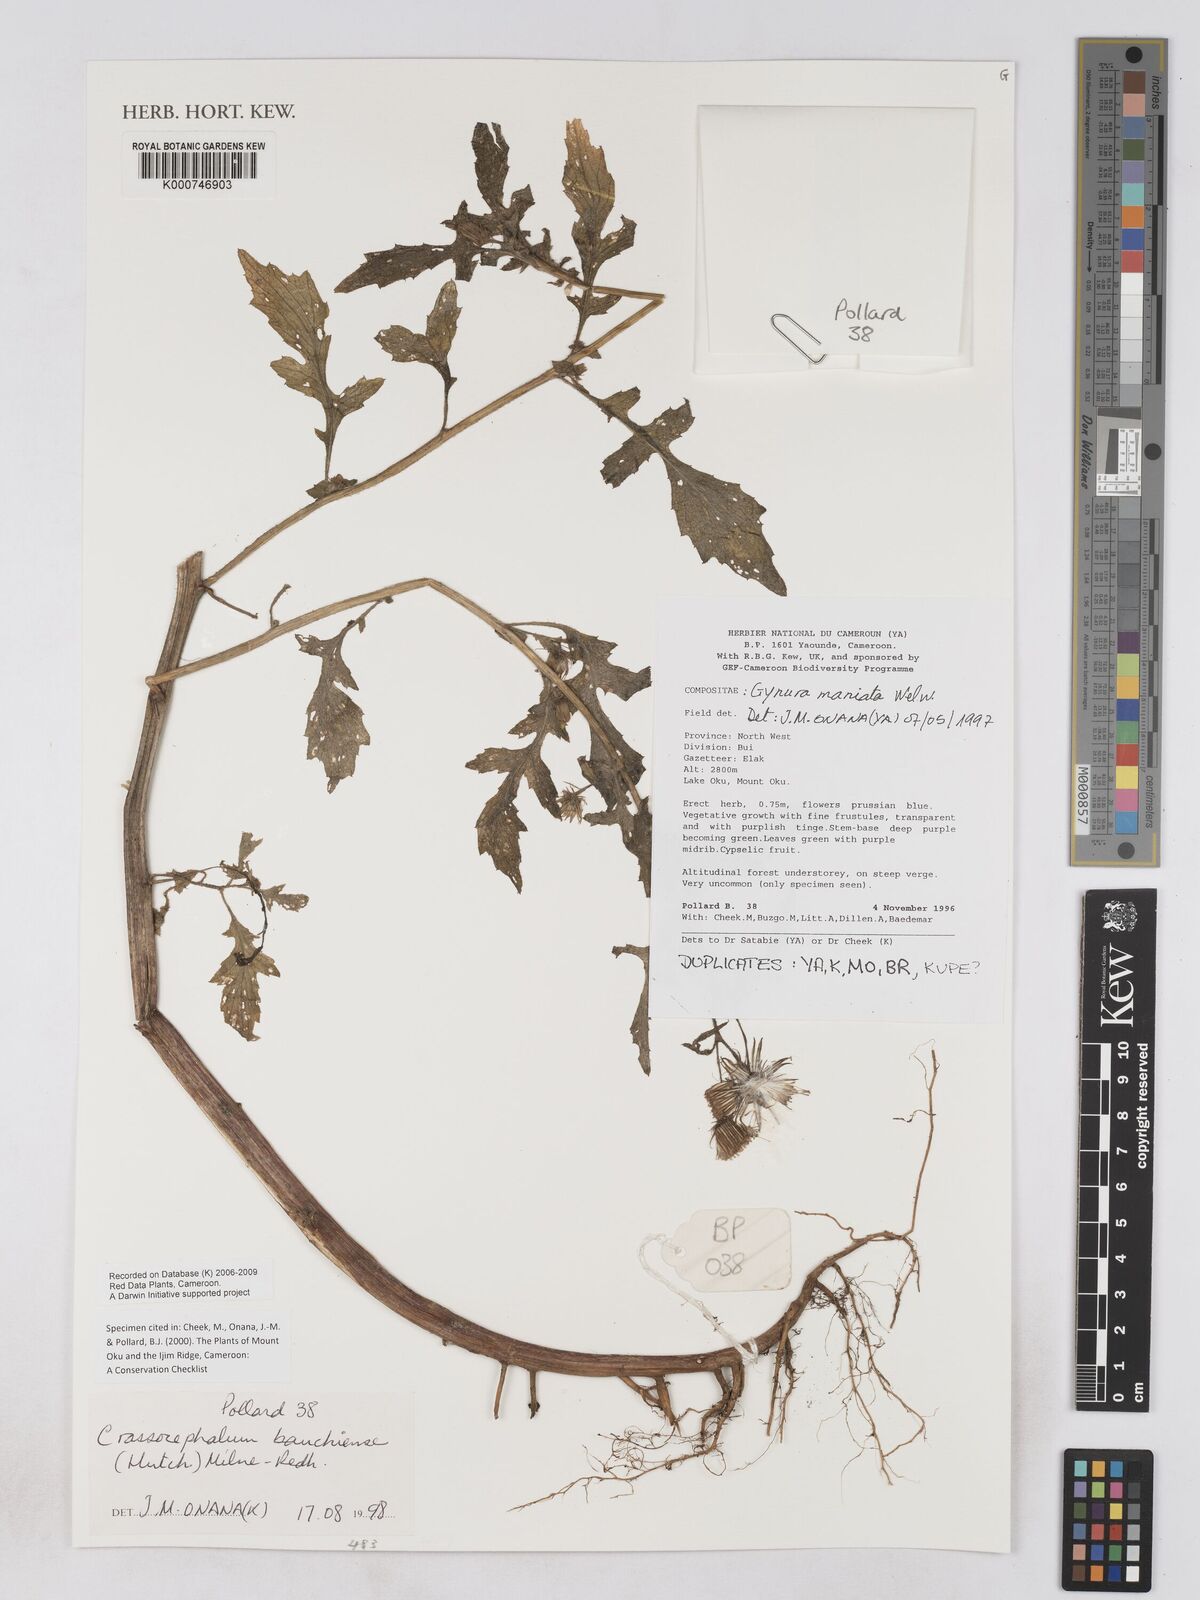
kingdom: Plantae
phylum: Tracheophyta
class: Magnoliopsida
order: Asterales
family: Asteraceae
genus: Crassocephalum
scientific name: Crassocephalum bauchiense
